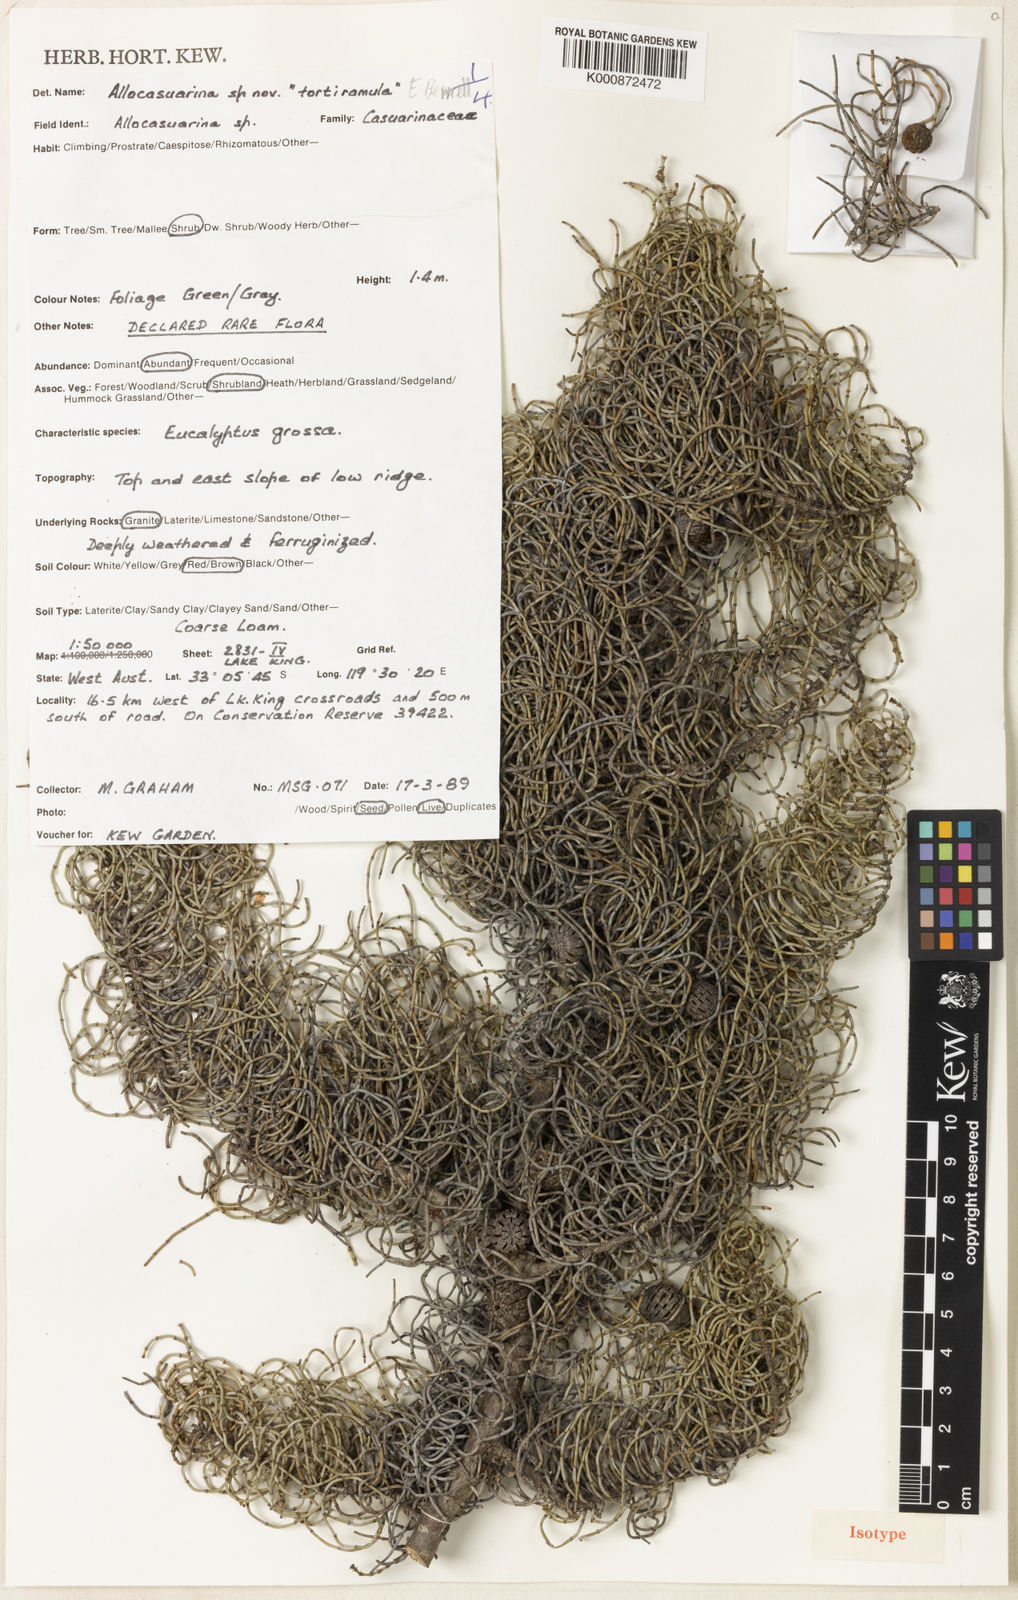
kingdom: Plantae
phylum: Tracheophyta
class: Magnoliopsida
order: Fagales
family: Casuarinaceae
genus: Allocasuarina
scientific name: Allocasuarina tortiramula
